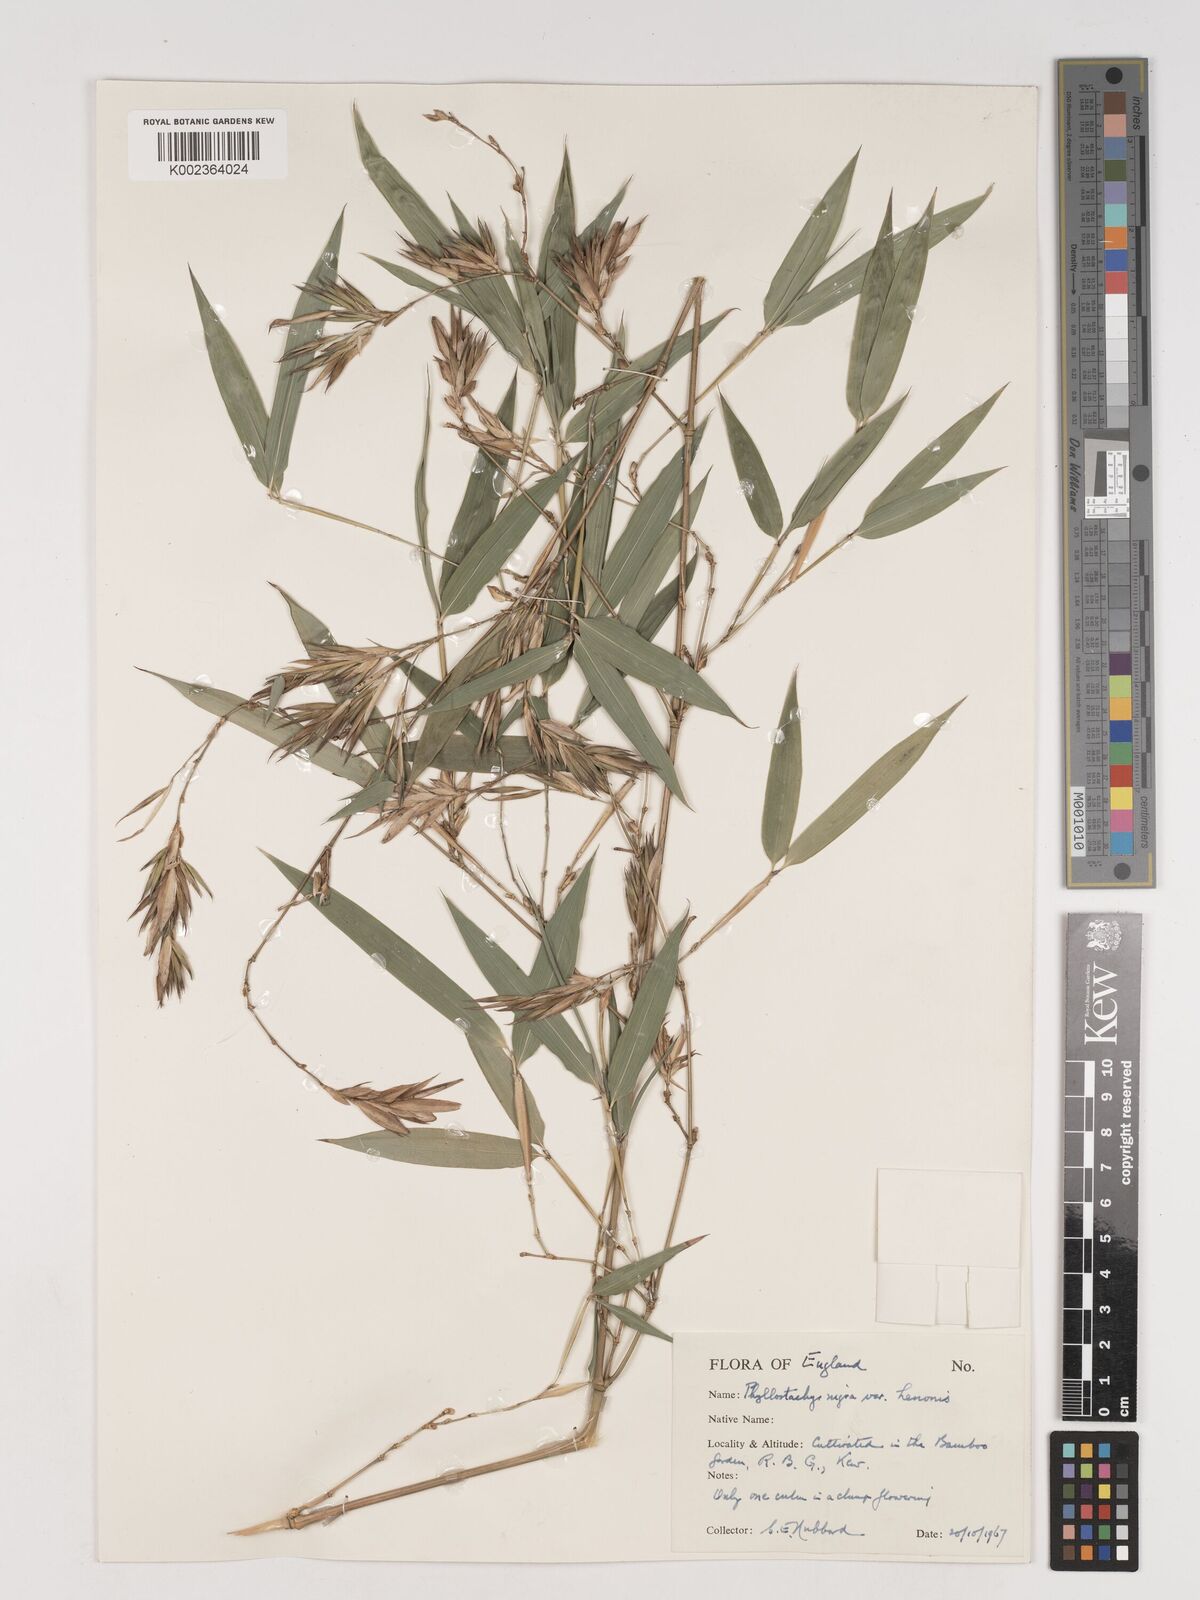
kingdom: Plantae
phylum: Tracheophyta
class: Liliopsida
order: Poales
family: Poaceae
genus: Phyllostachys
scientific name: Phyllostachys nigra
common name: Black bamboo
